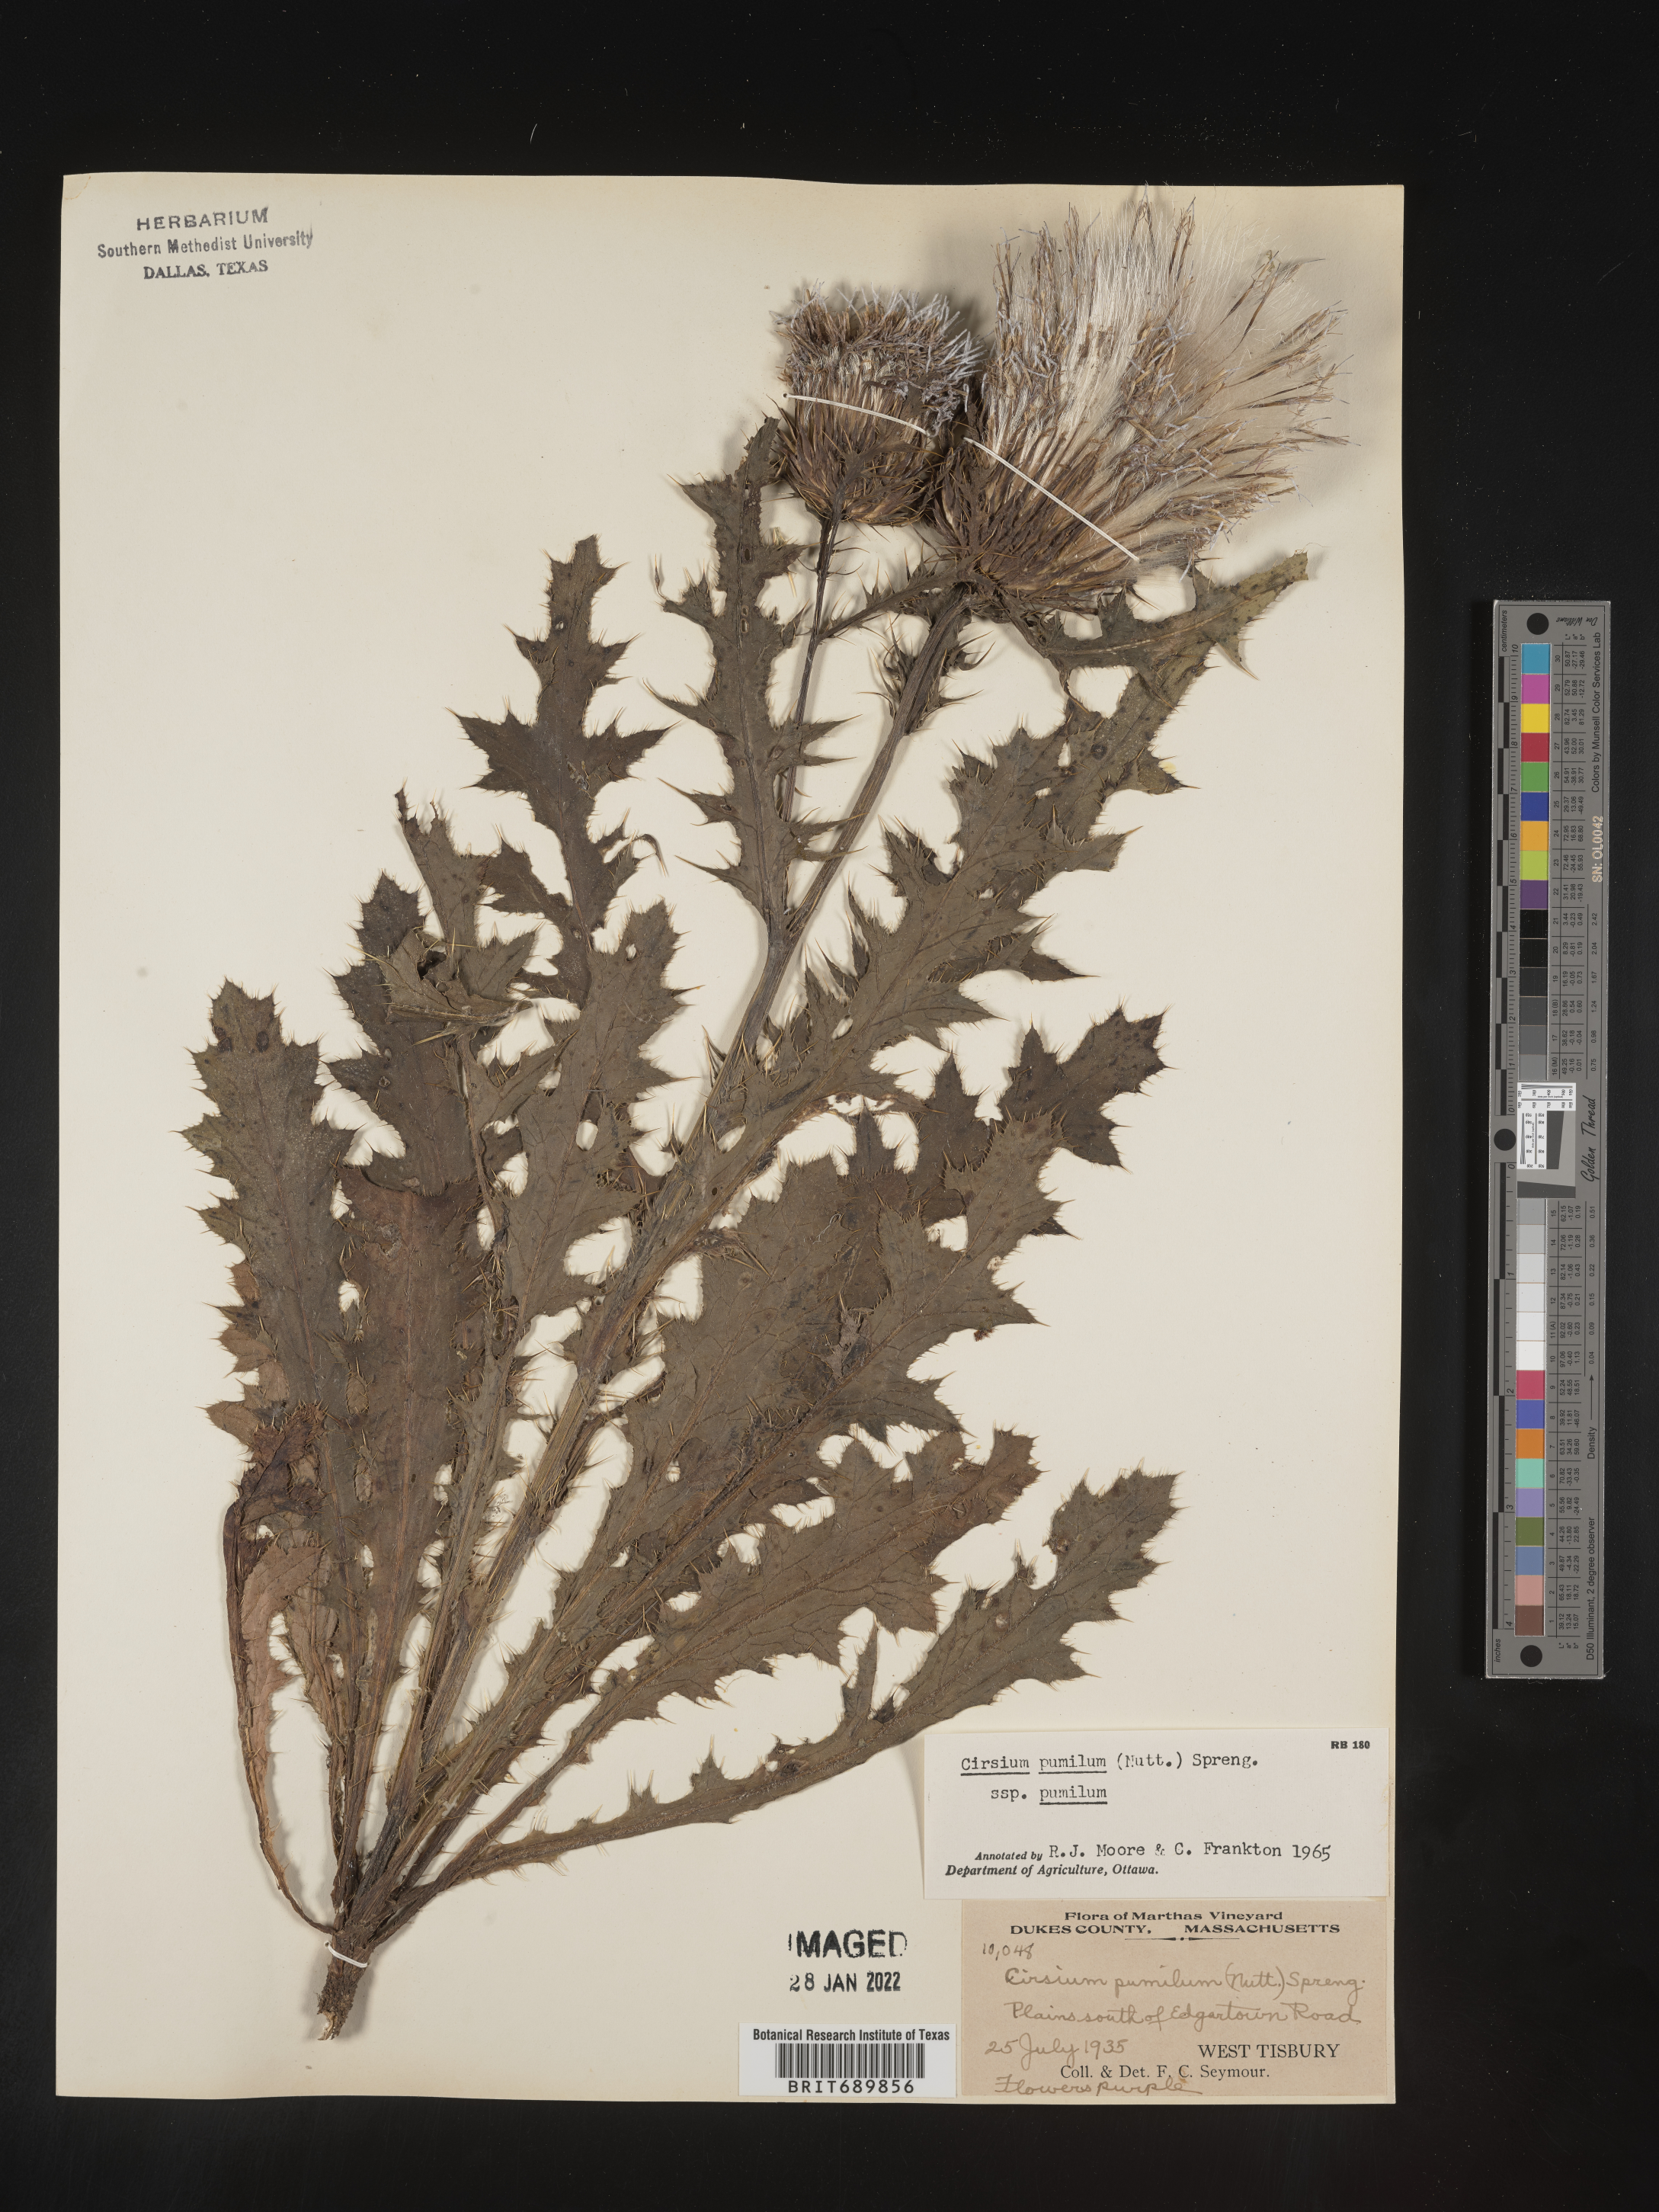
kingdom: Plantae
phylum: Tracheophyta
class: Magnoliopsida
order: Asterales
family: Asteraceae
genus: Cirsium
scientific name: Cirsium pumilum
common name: Pasture thistle
